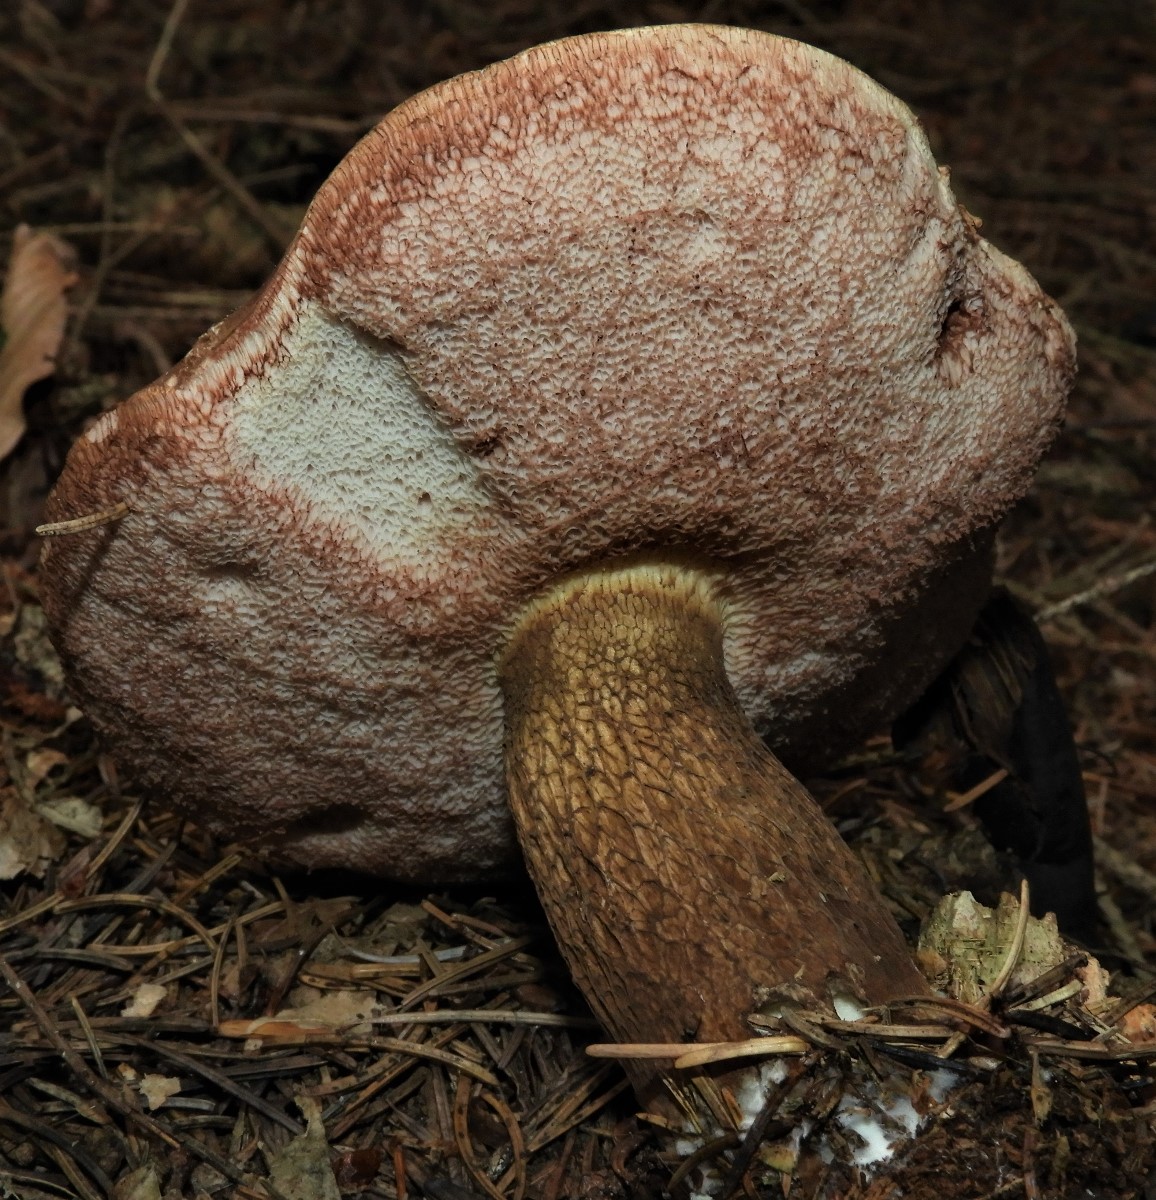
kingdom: Fungi
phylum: Basidiomycota
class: Agaricomycetes
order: Boletales
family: Boletaceae
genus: Tylopilus
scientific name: Tylopilus felleus
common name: galderørhat
